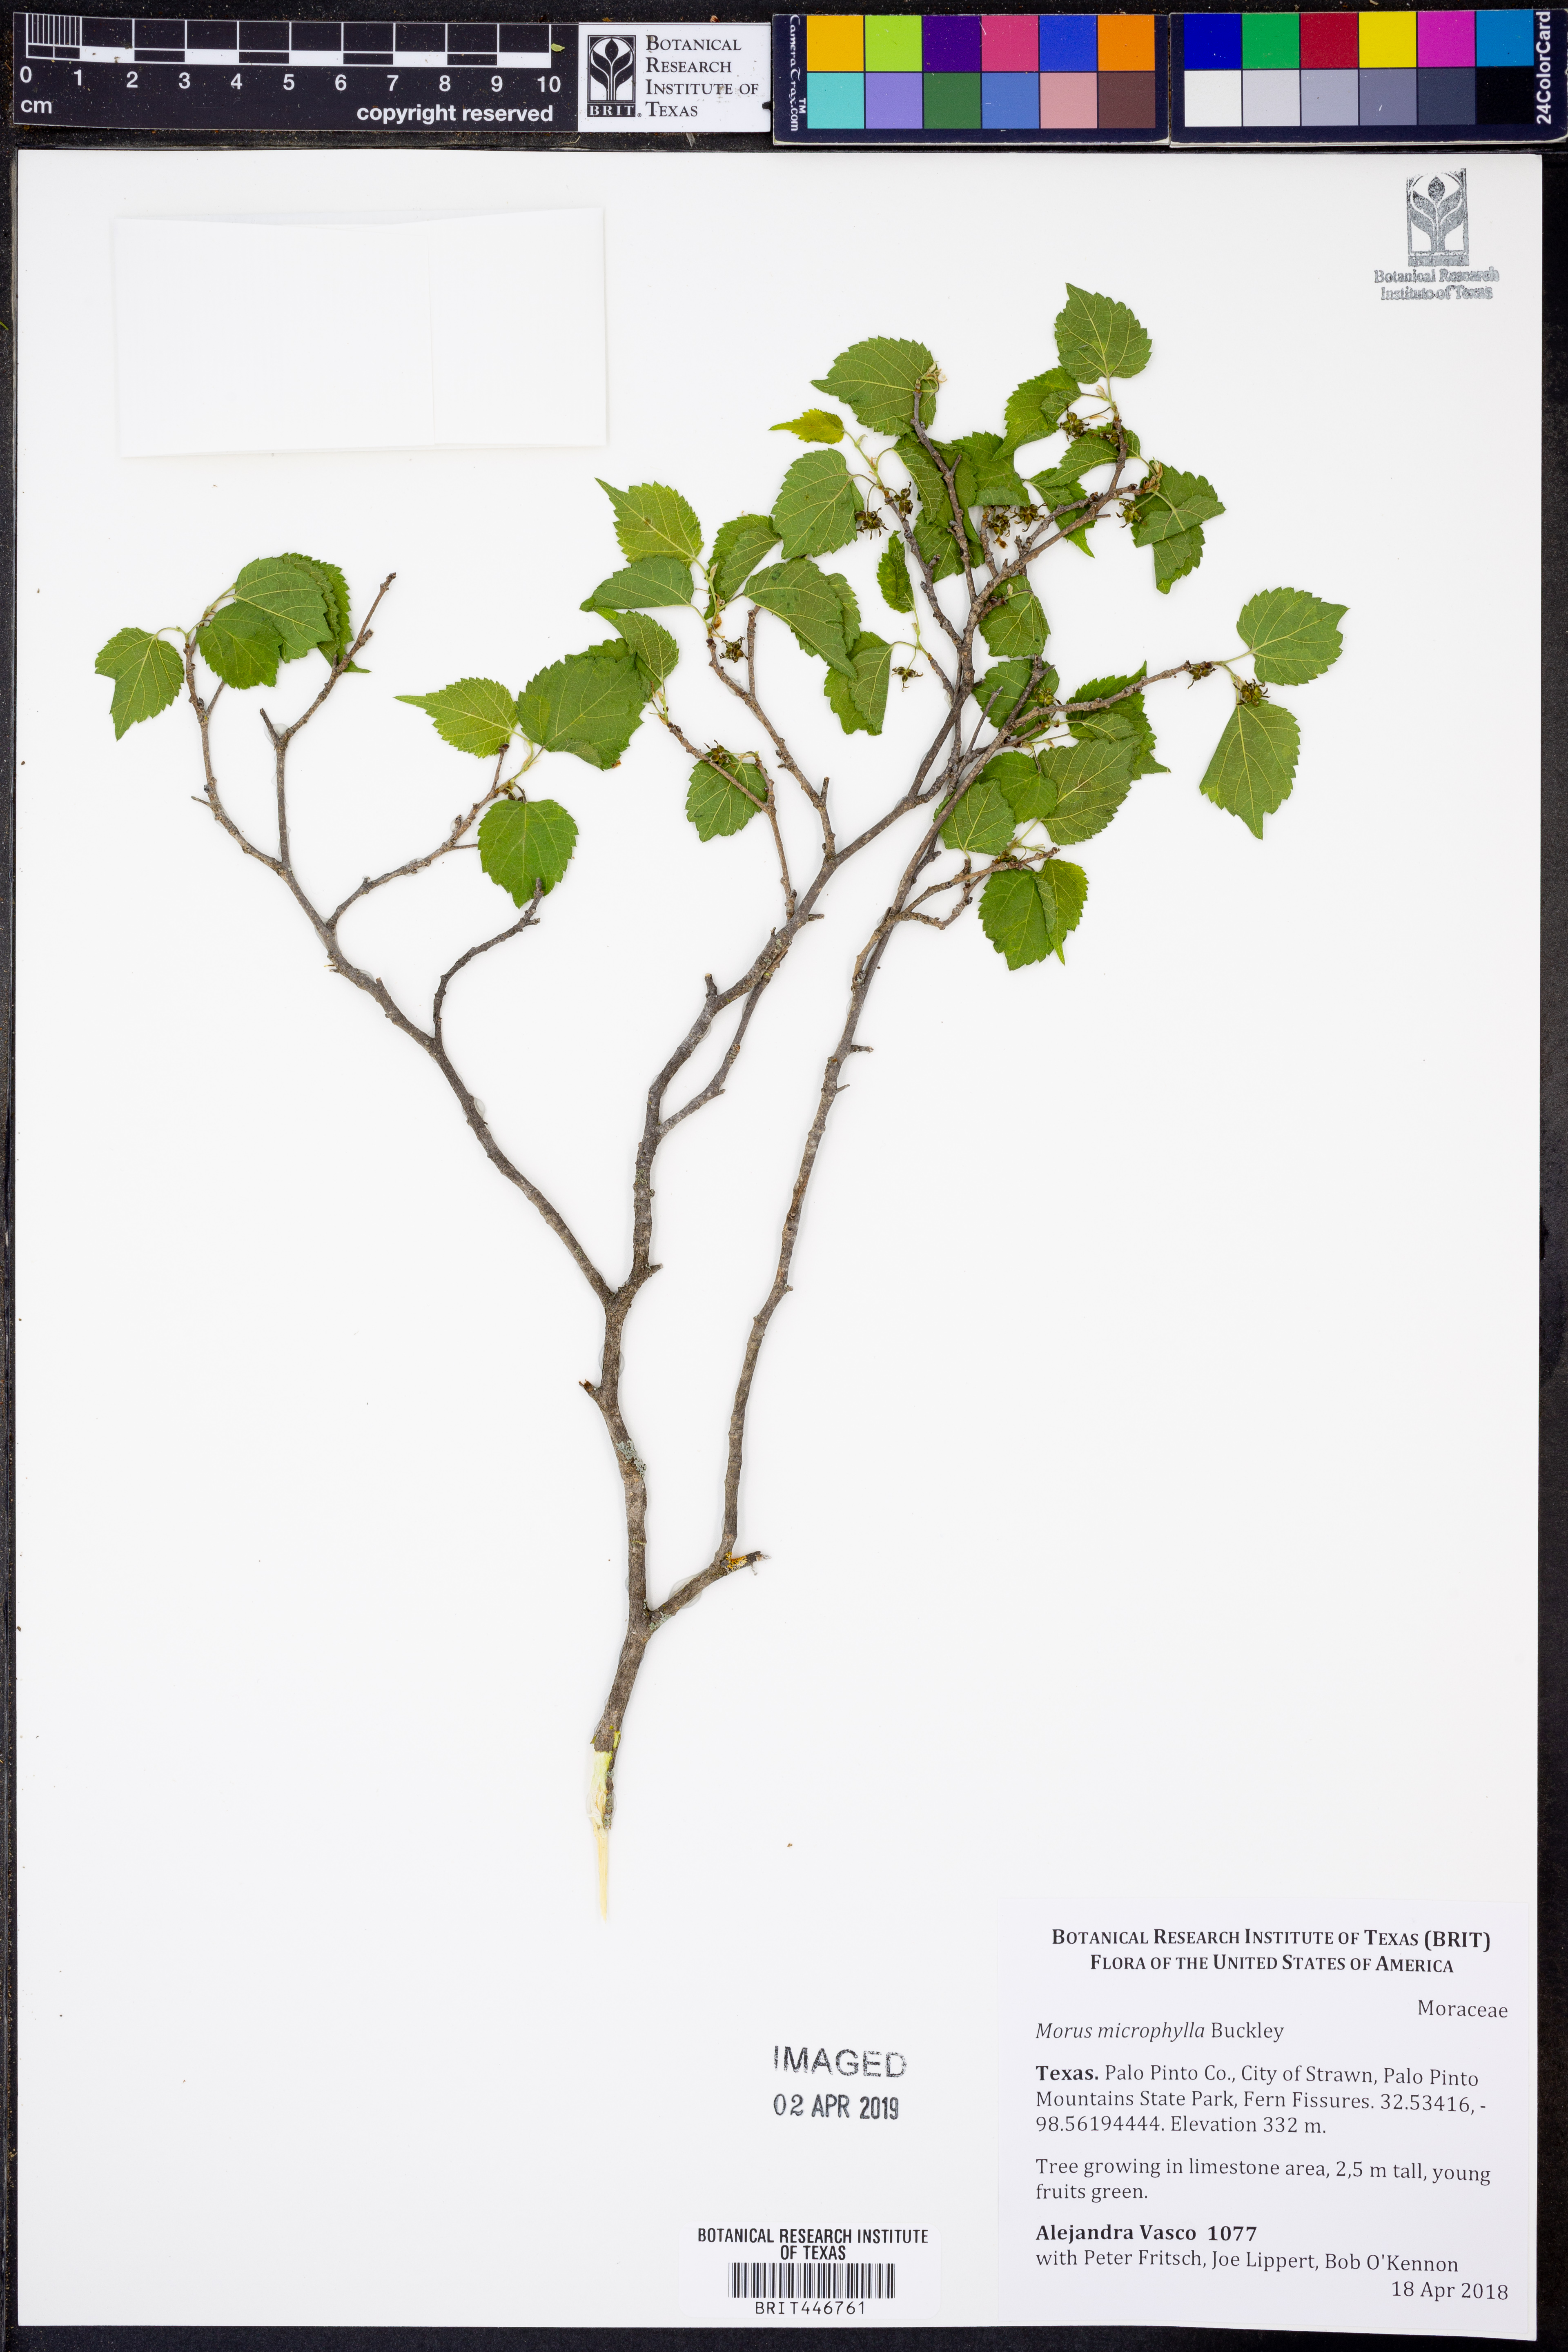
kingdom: Plantae
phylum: Tracheophyta
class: Magnoliopsida
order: Rosales
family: Moraceae
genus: Morus
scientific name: Morus microphylla
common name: Mexican mulberry
